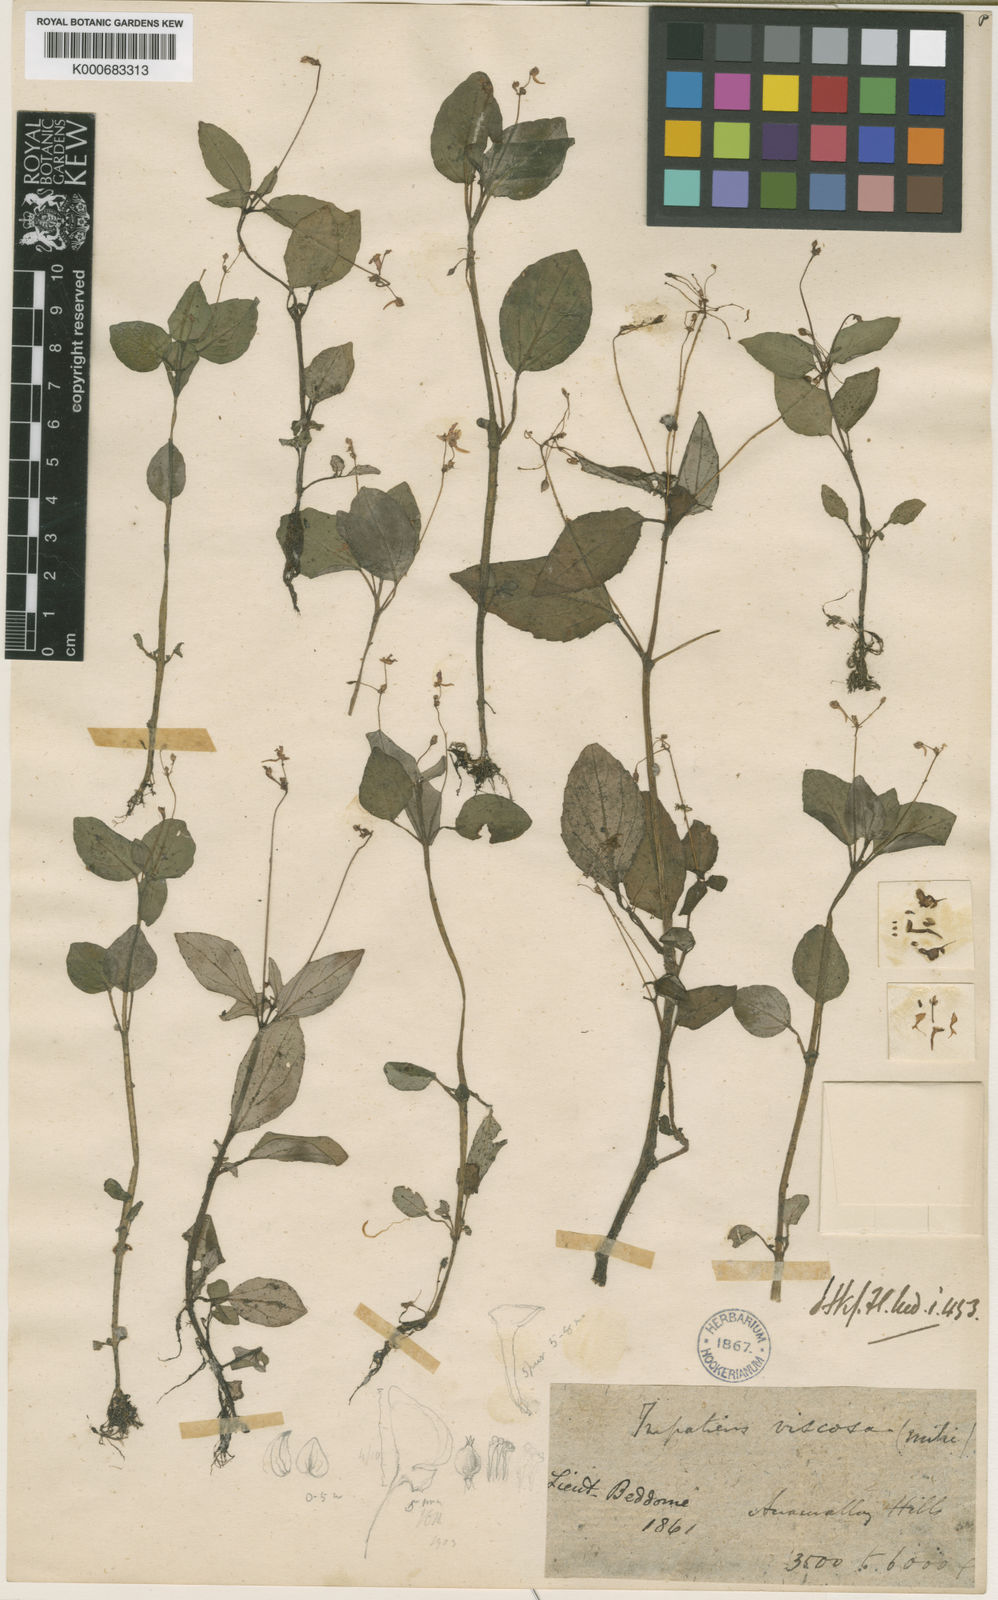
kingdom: Plantae
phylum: Tracheophyta
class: Magnoliopsida
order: Ericales
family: Balsaminaceae
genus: Impatiens
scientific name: Impatiens viscosa
